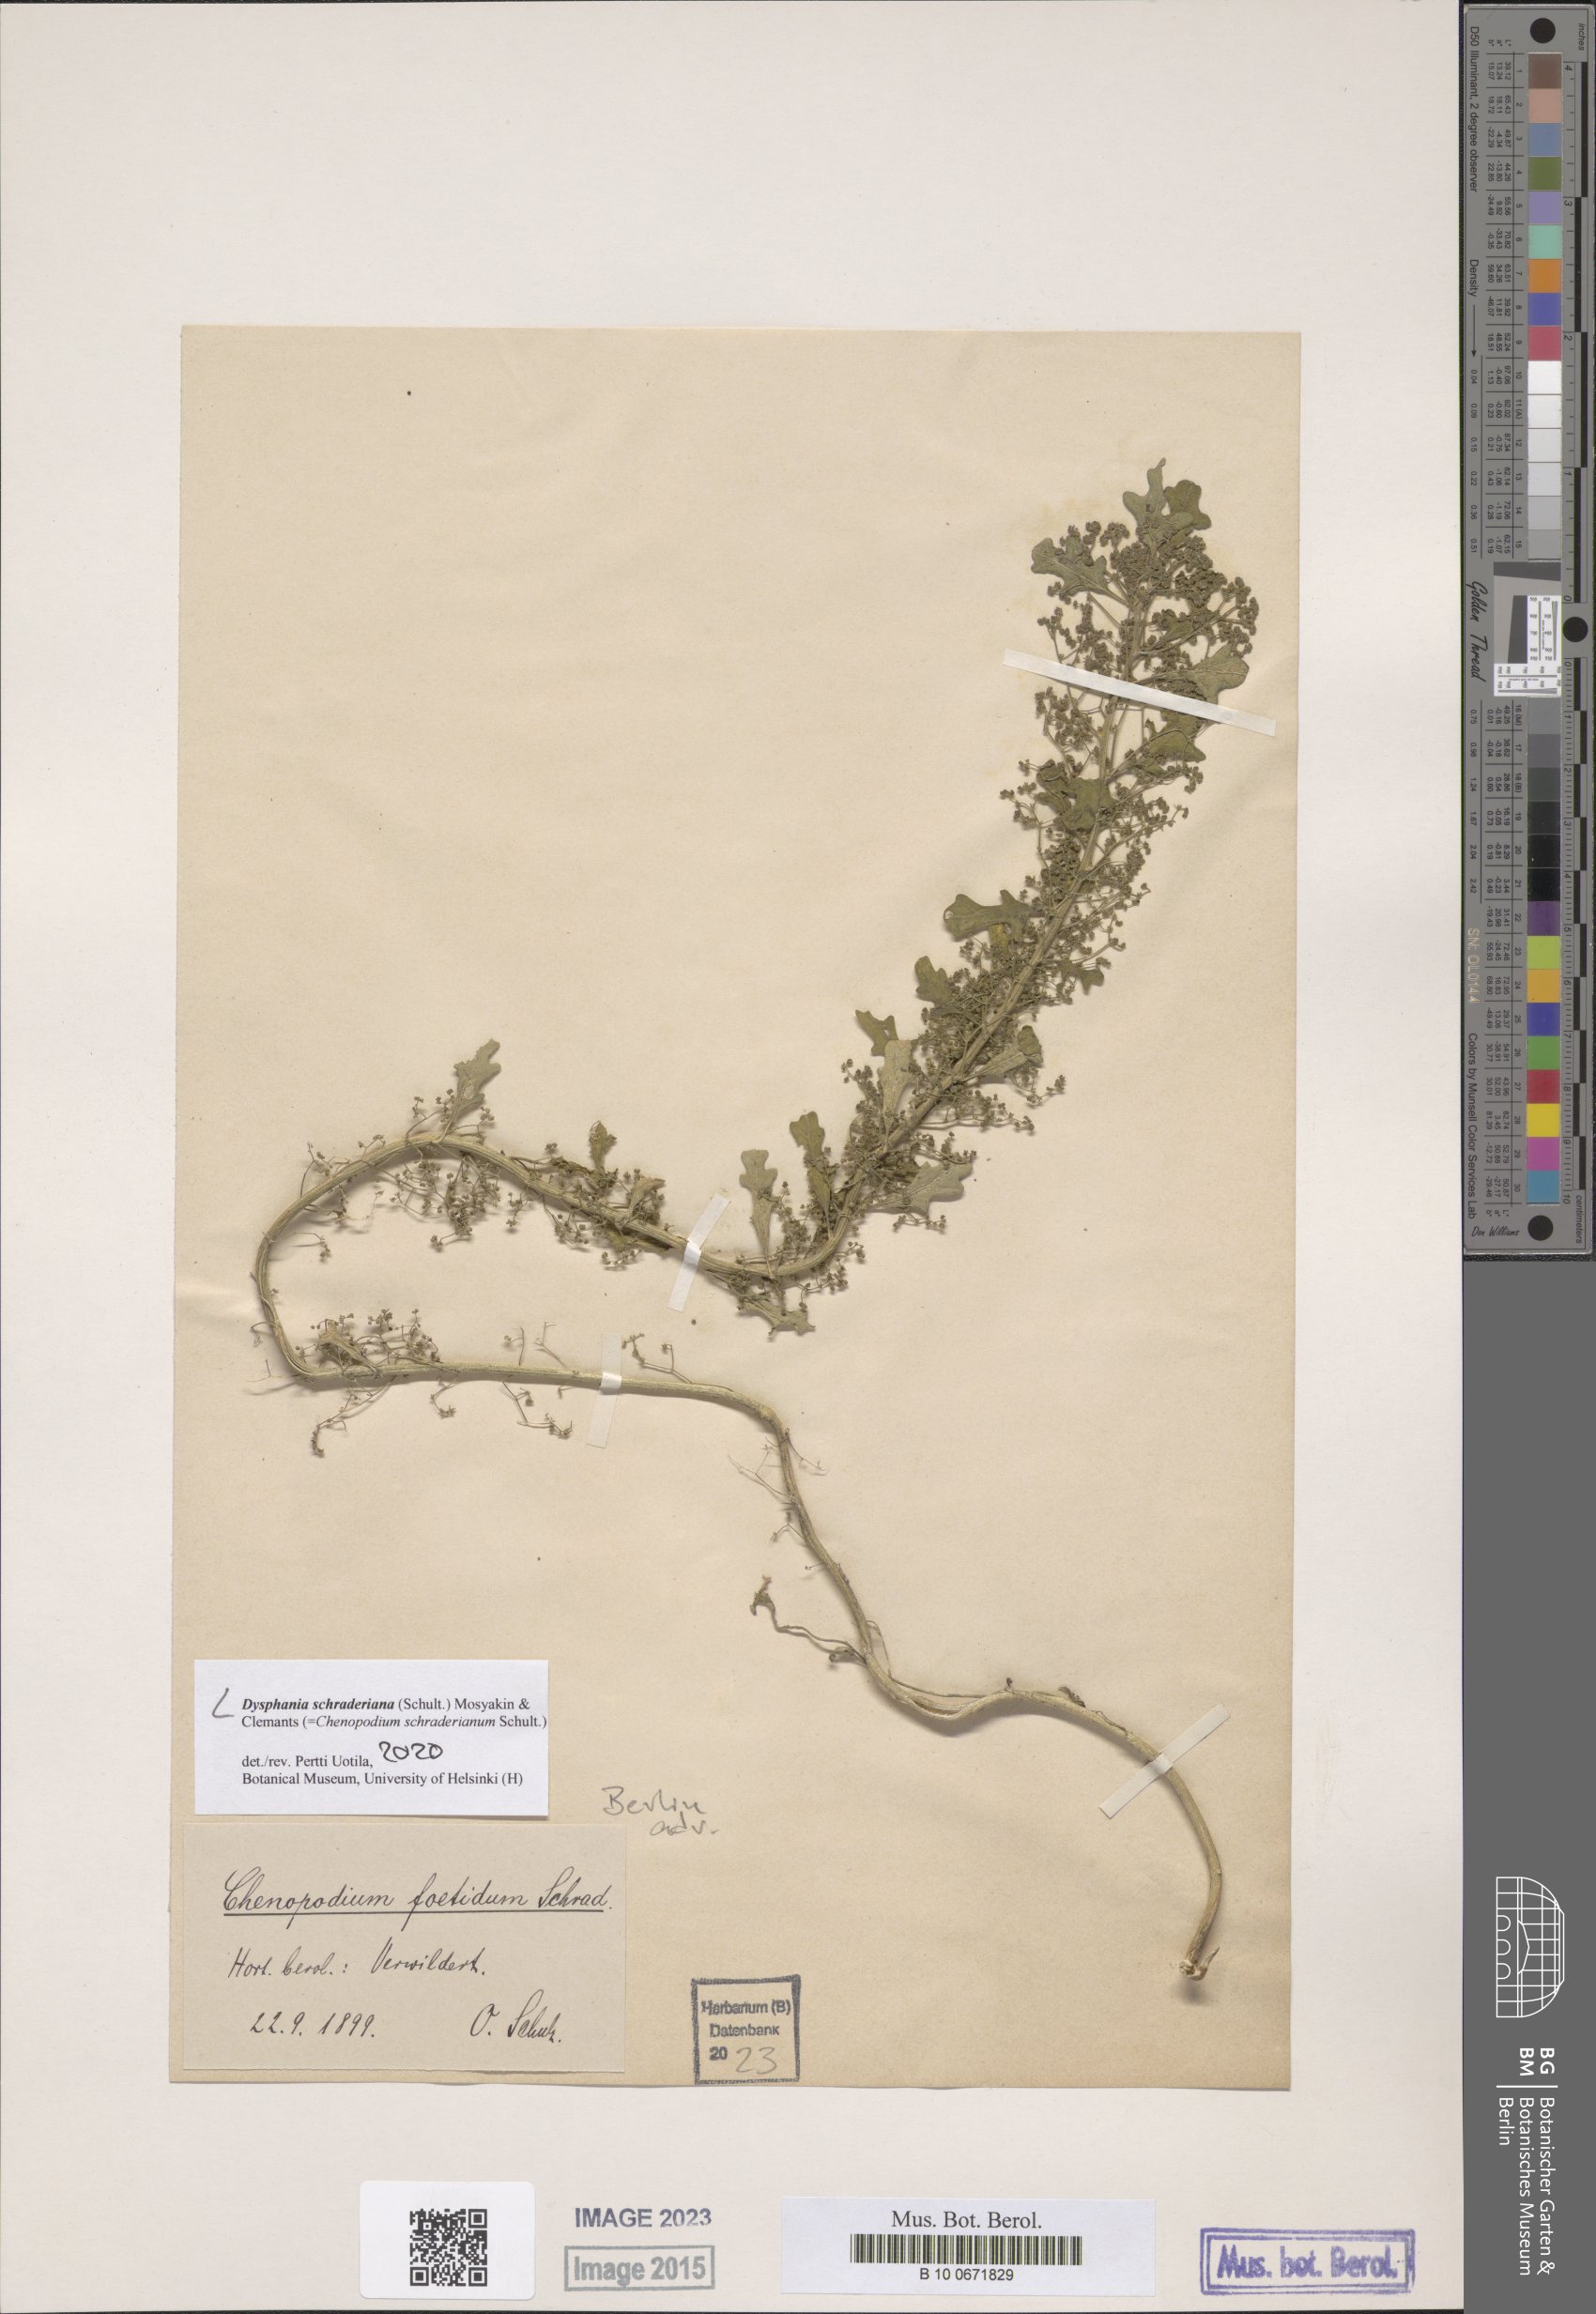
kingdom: Plantae
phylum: Tracheophyta
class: Magnoliopsida
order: Caryophyllales
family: Amaranthaceae
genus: Dysphania
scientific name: Dysphania schraderiana
